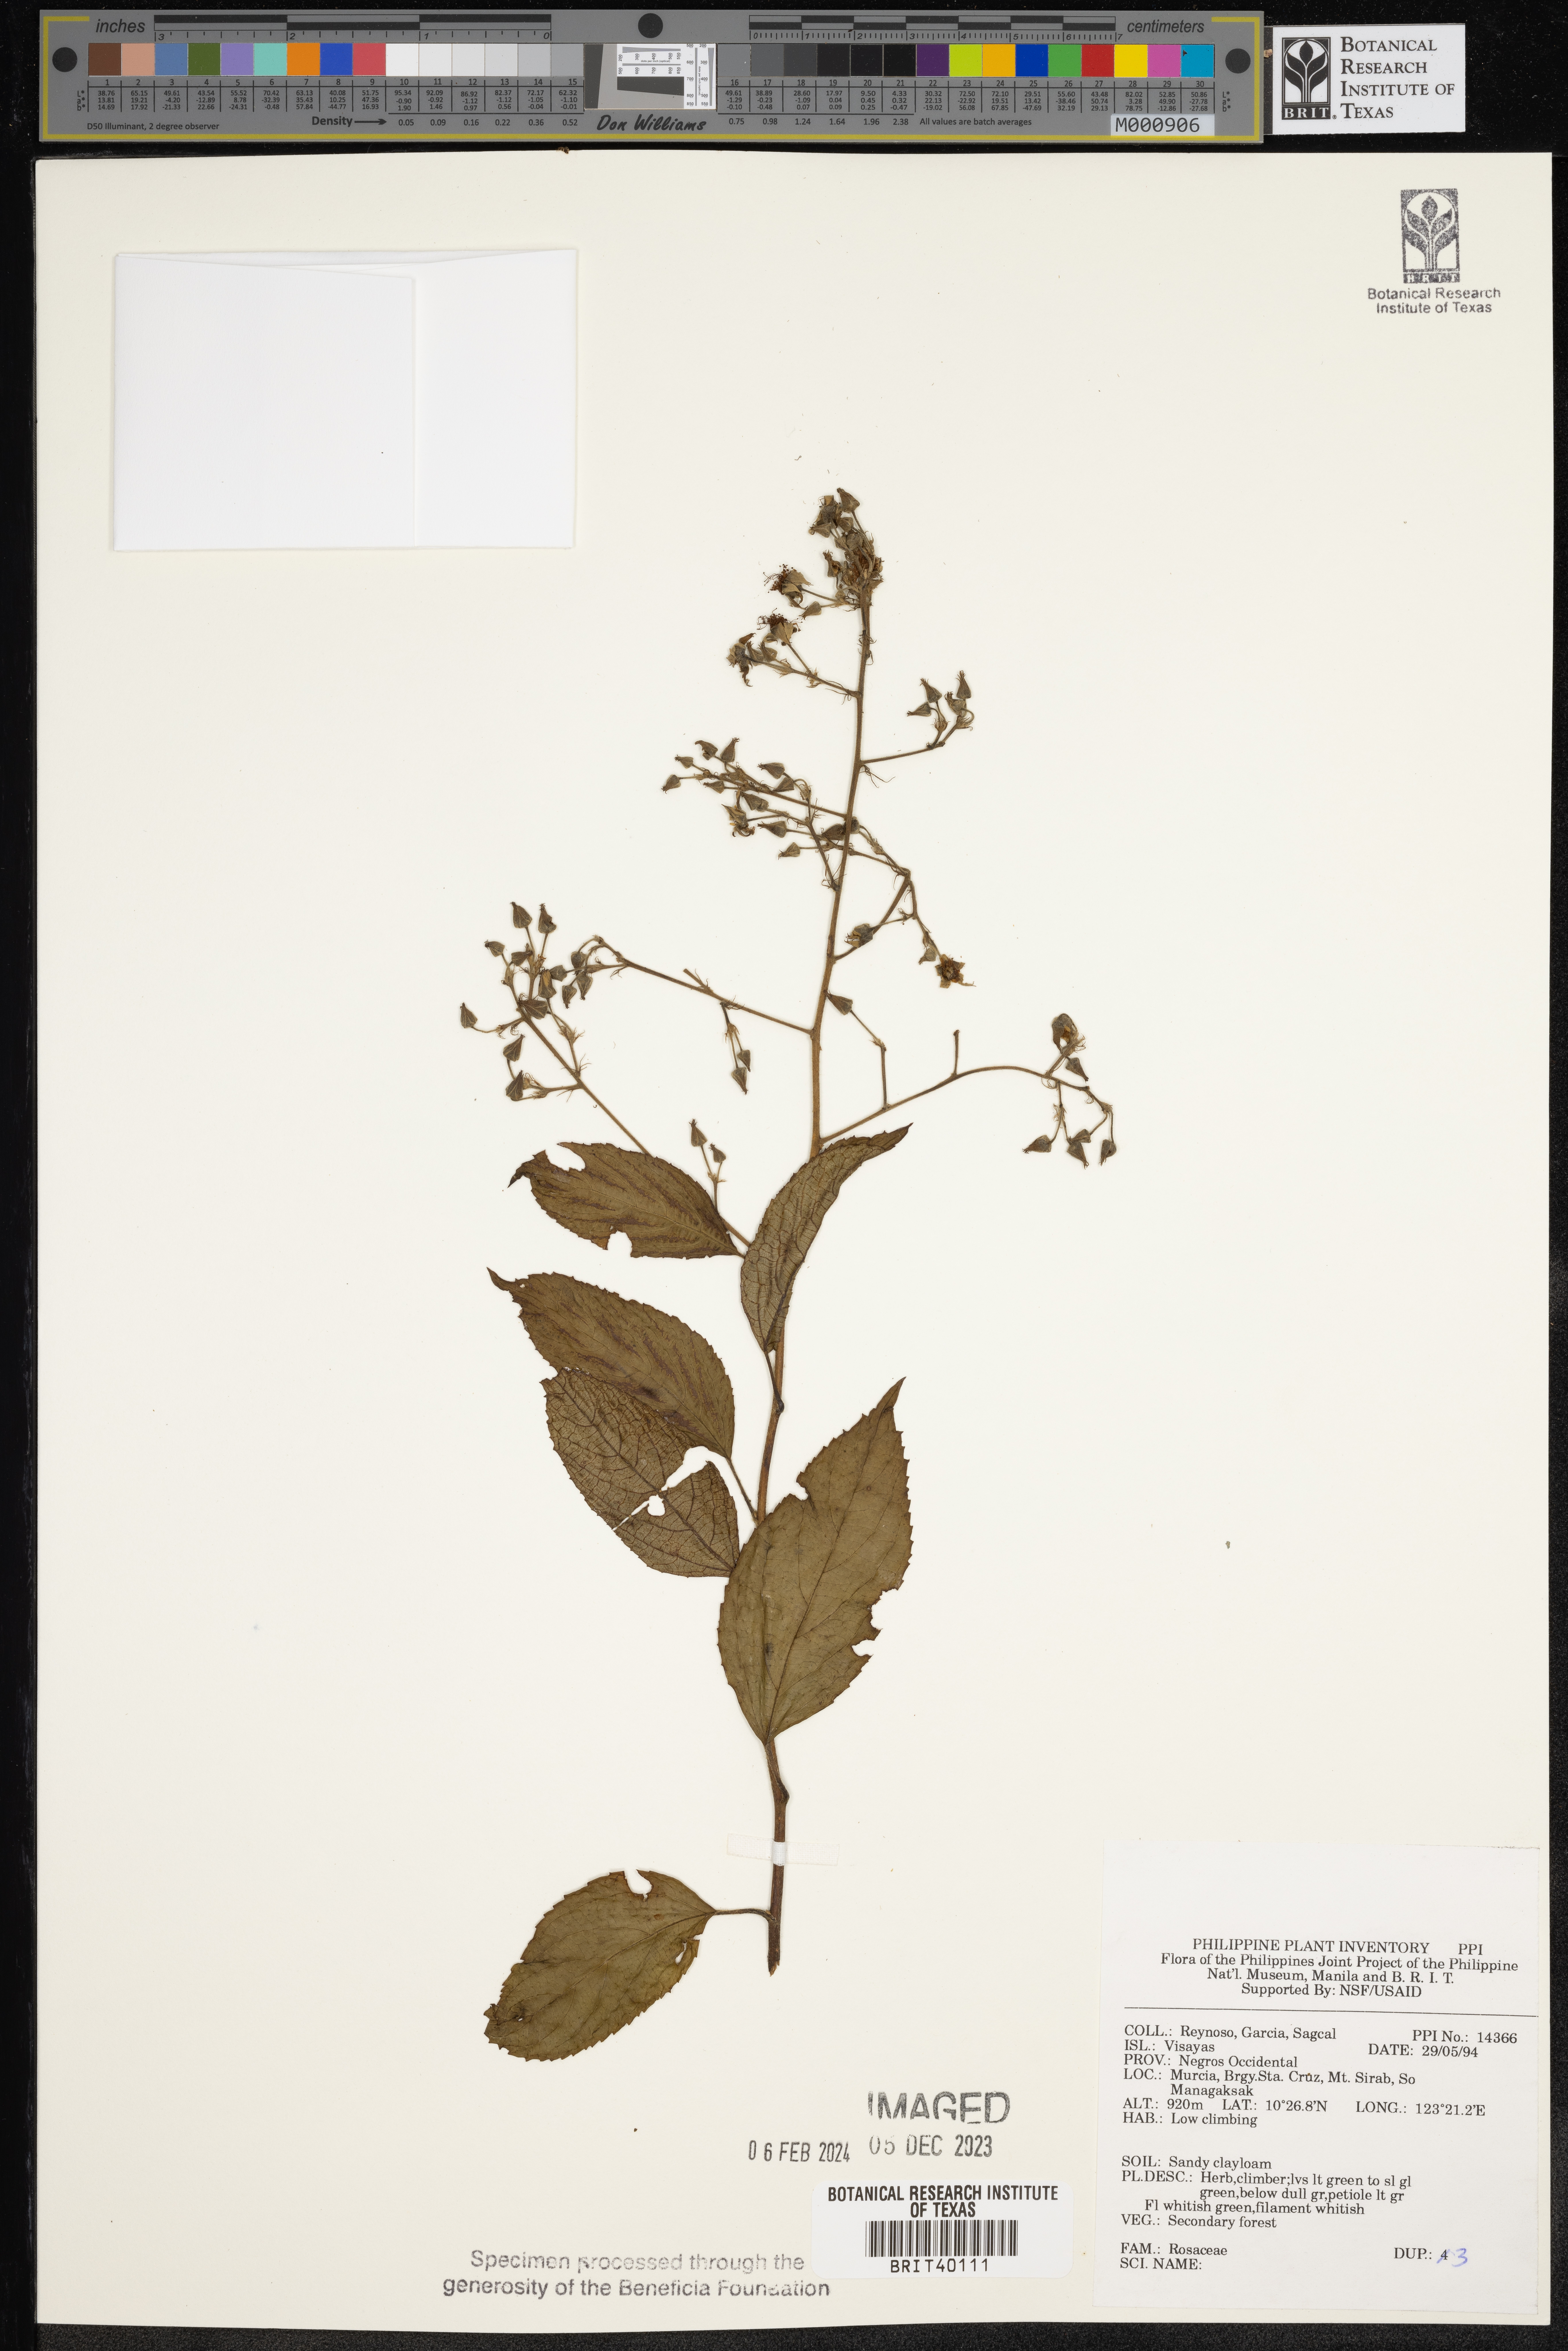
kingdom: Plantae
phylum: Tracheophyta
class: Magnoliopsida
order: Rosales
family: Rosaceae
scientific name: Rosaceae
